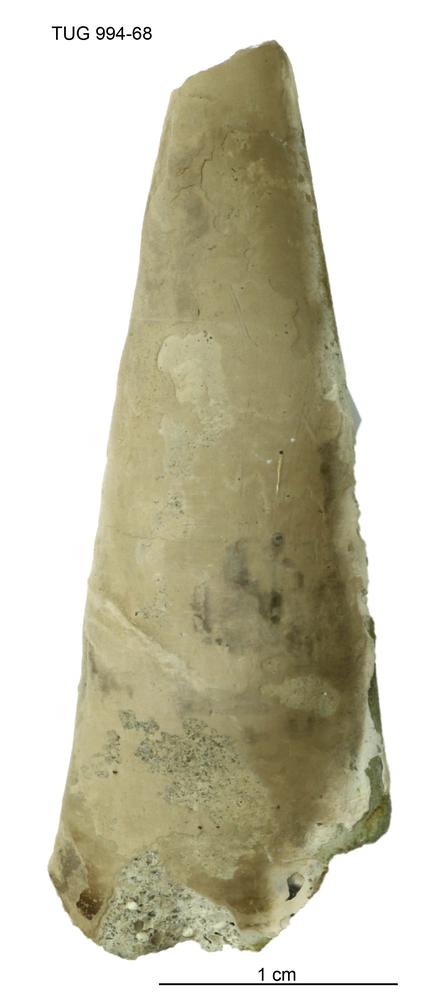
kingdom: Animalia
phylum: Annelida
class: Polychaeta
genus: Hyolithes
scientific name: Hyolithes
